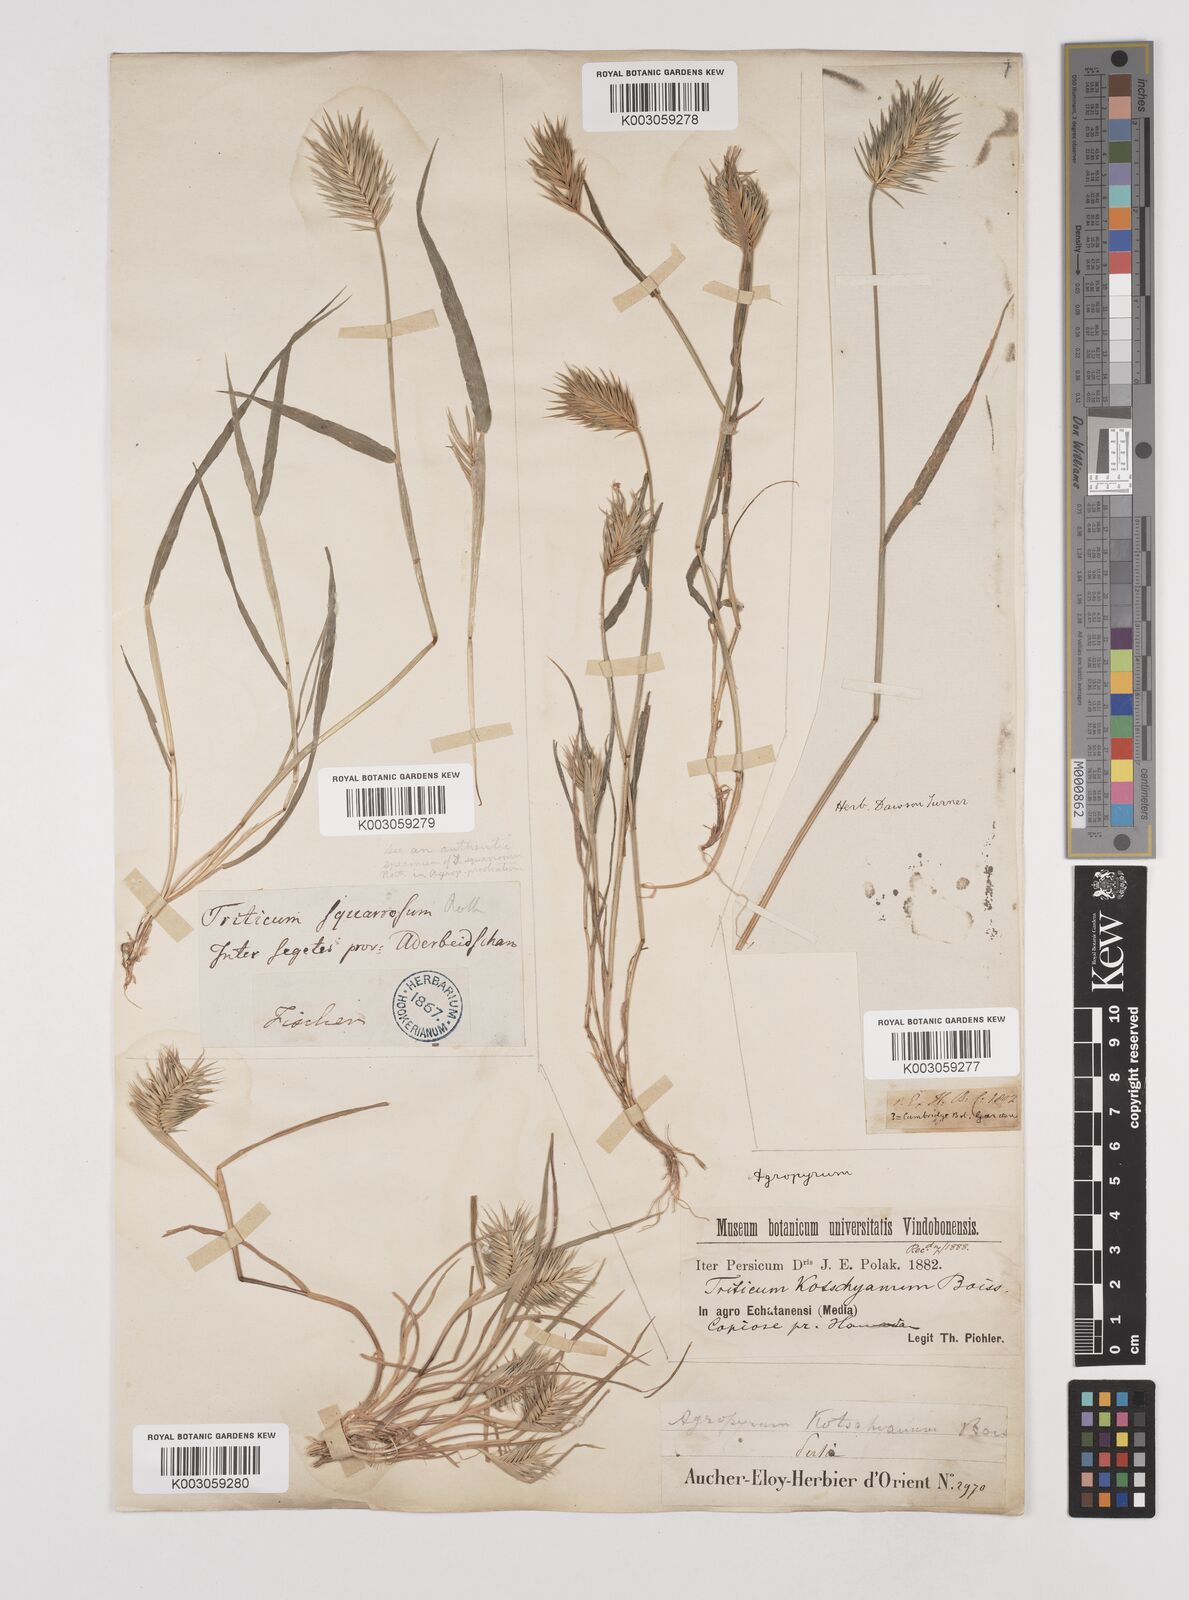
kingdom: Plantae
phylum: Tracheophyta
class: Liliopsida
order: Poales
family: Poaceae
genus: Eremopyrum
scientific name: Eremopyrum bonaepartis
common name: Tapertip false wheatgrass
